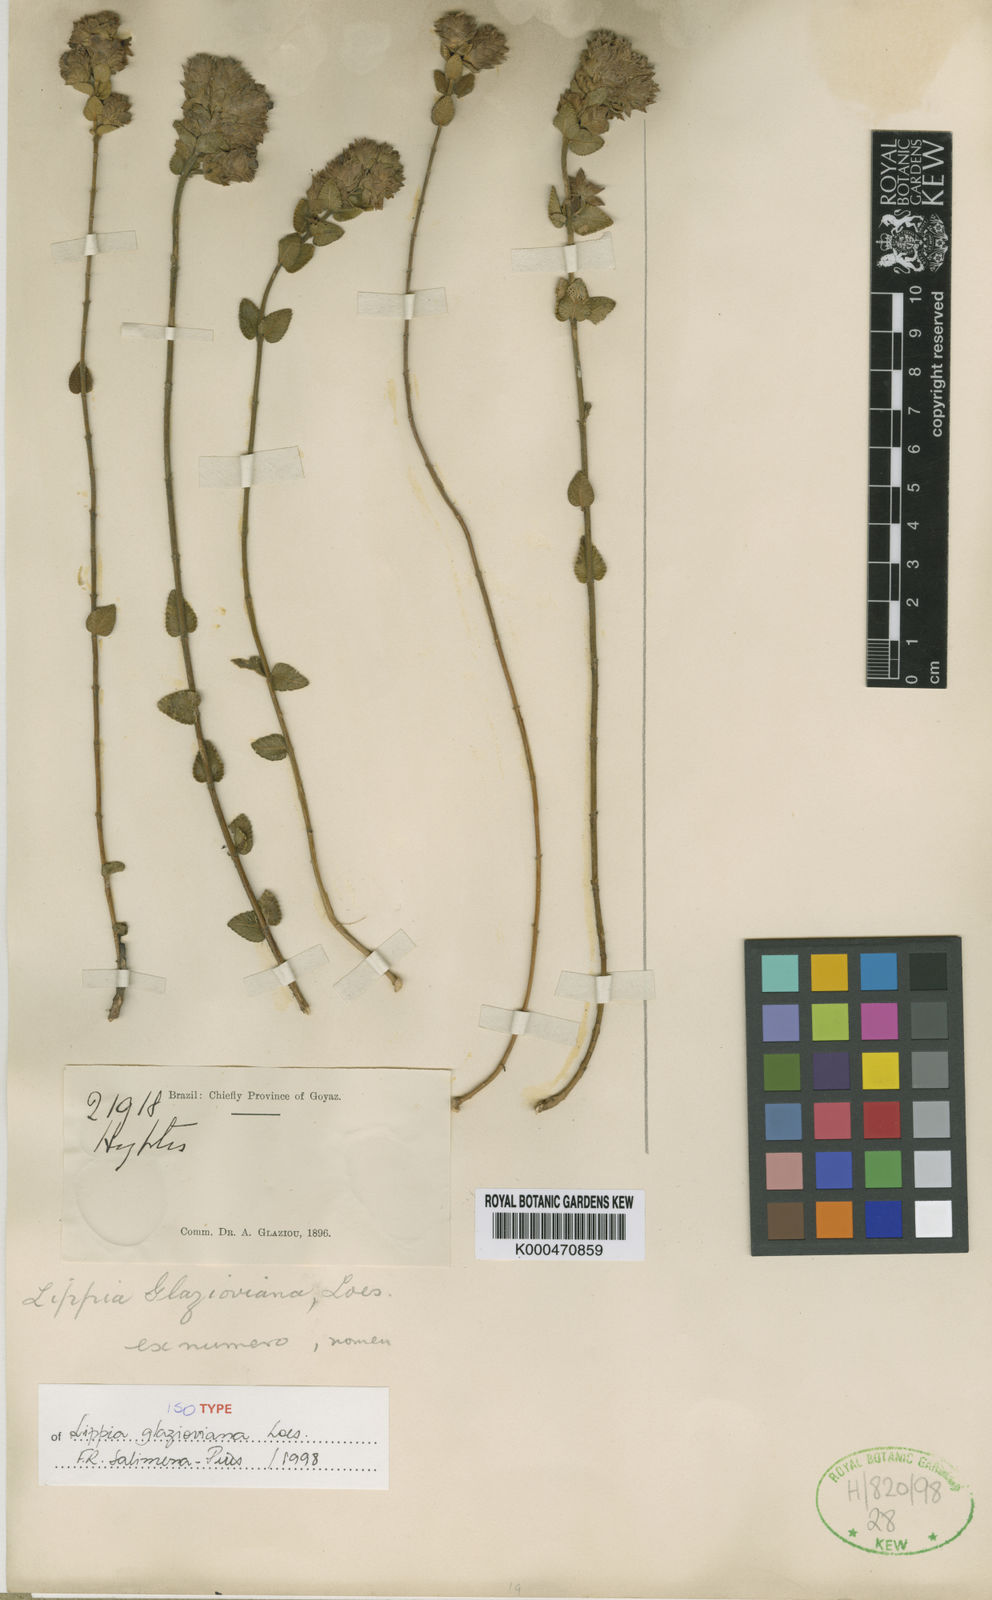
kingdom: Plantae
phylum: Tracheophyta
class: Magnoliopsida
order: Lamiales
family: Verbenaceae
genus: Lippia
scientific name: Lippia glazioviana
